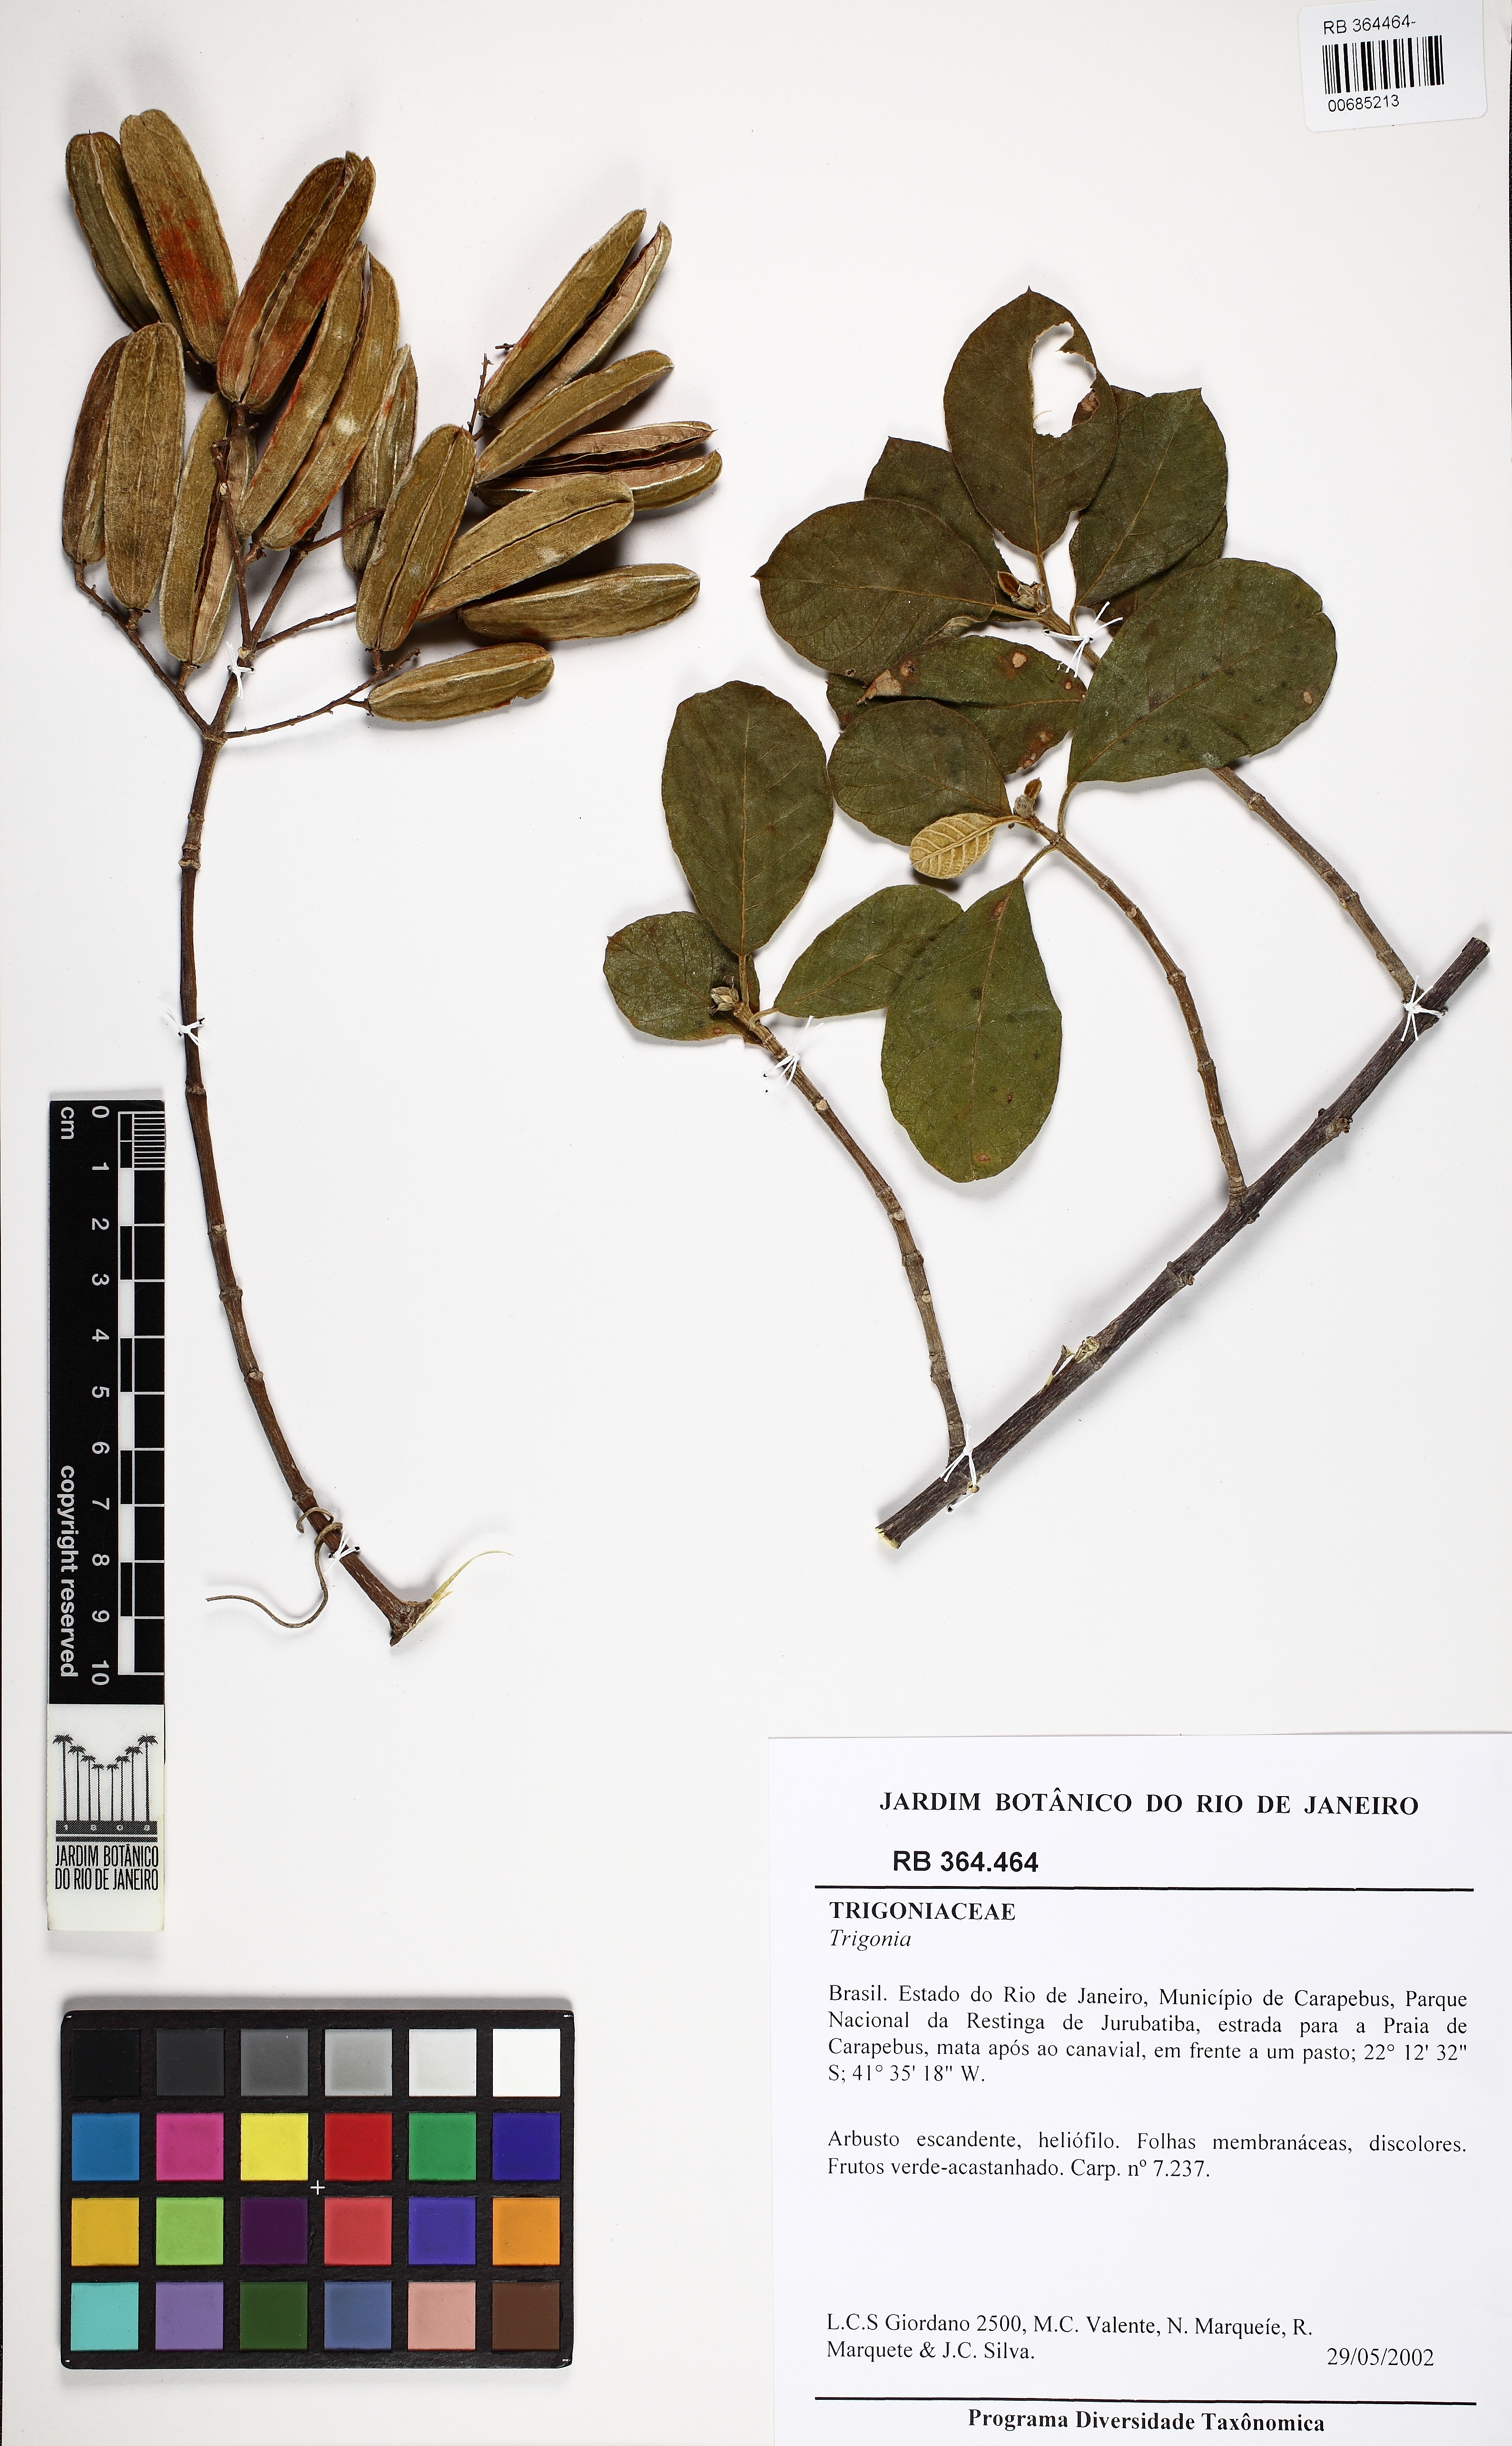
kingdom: Plantae
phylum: Tracheophyta
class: Magnoliopsida
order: Malpighiales
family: Trigoniaceae
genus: Trigonia
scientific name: Trigonia
